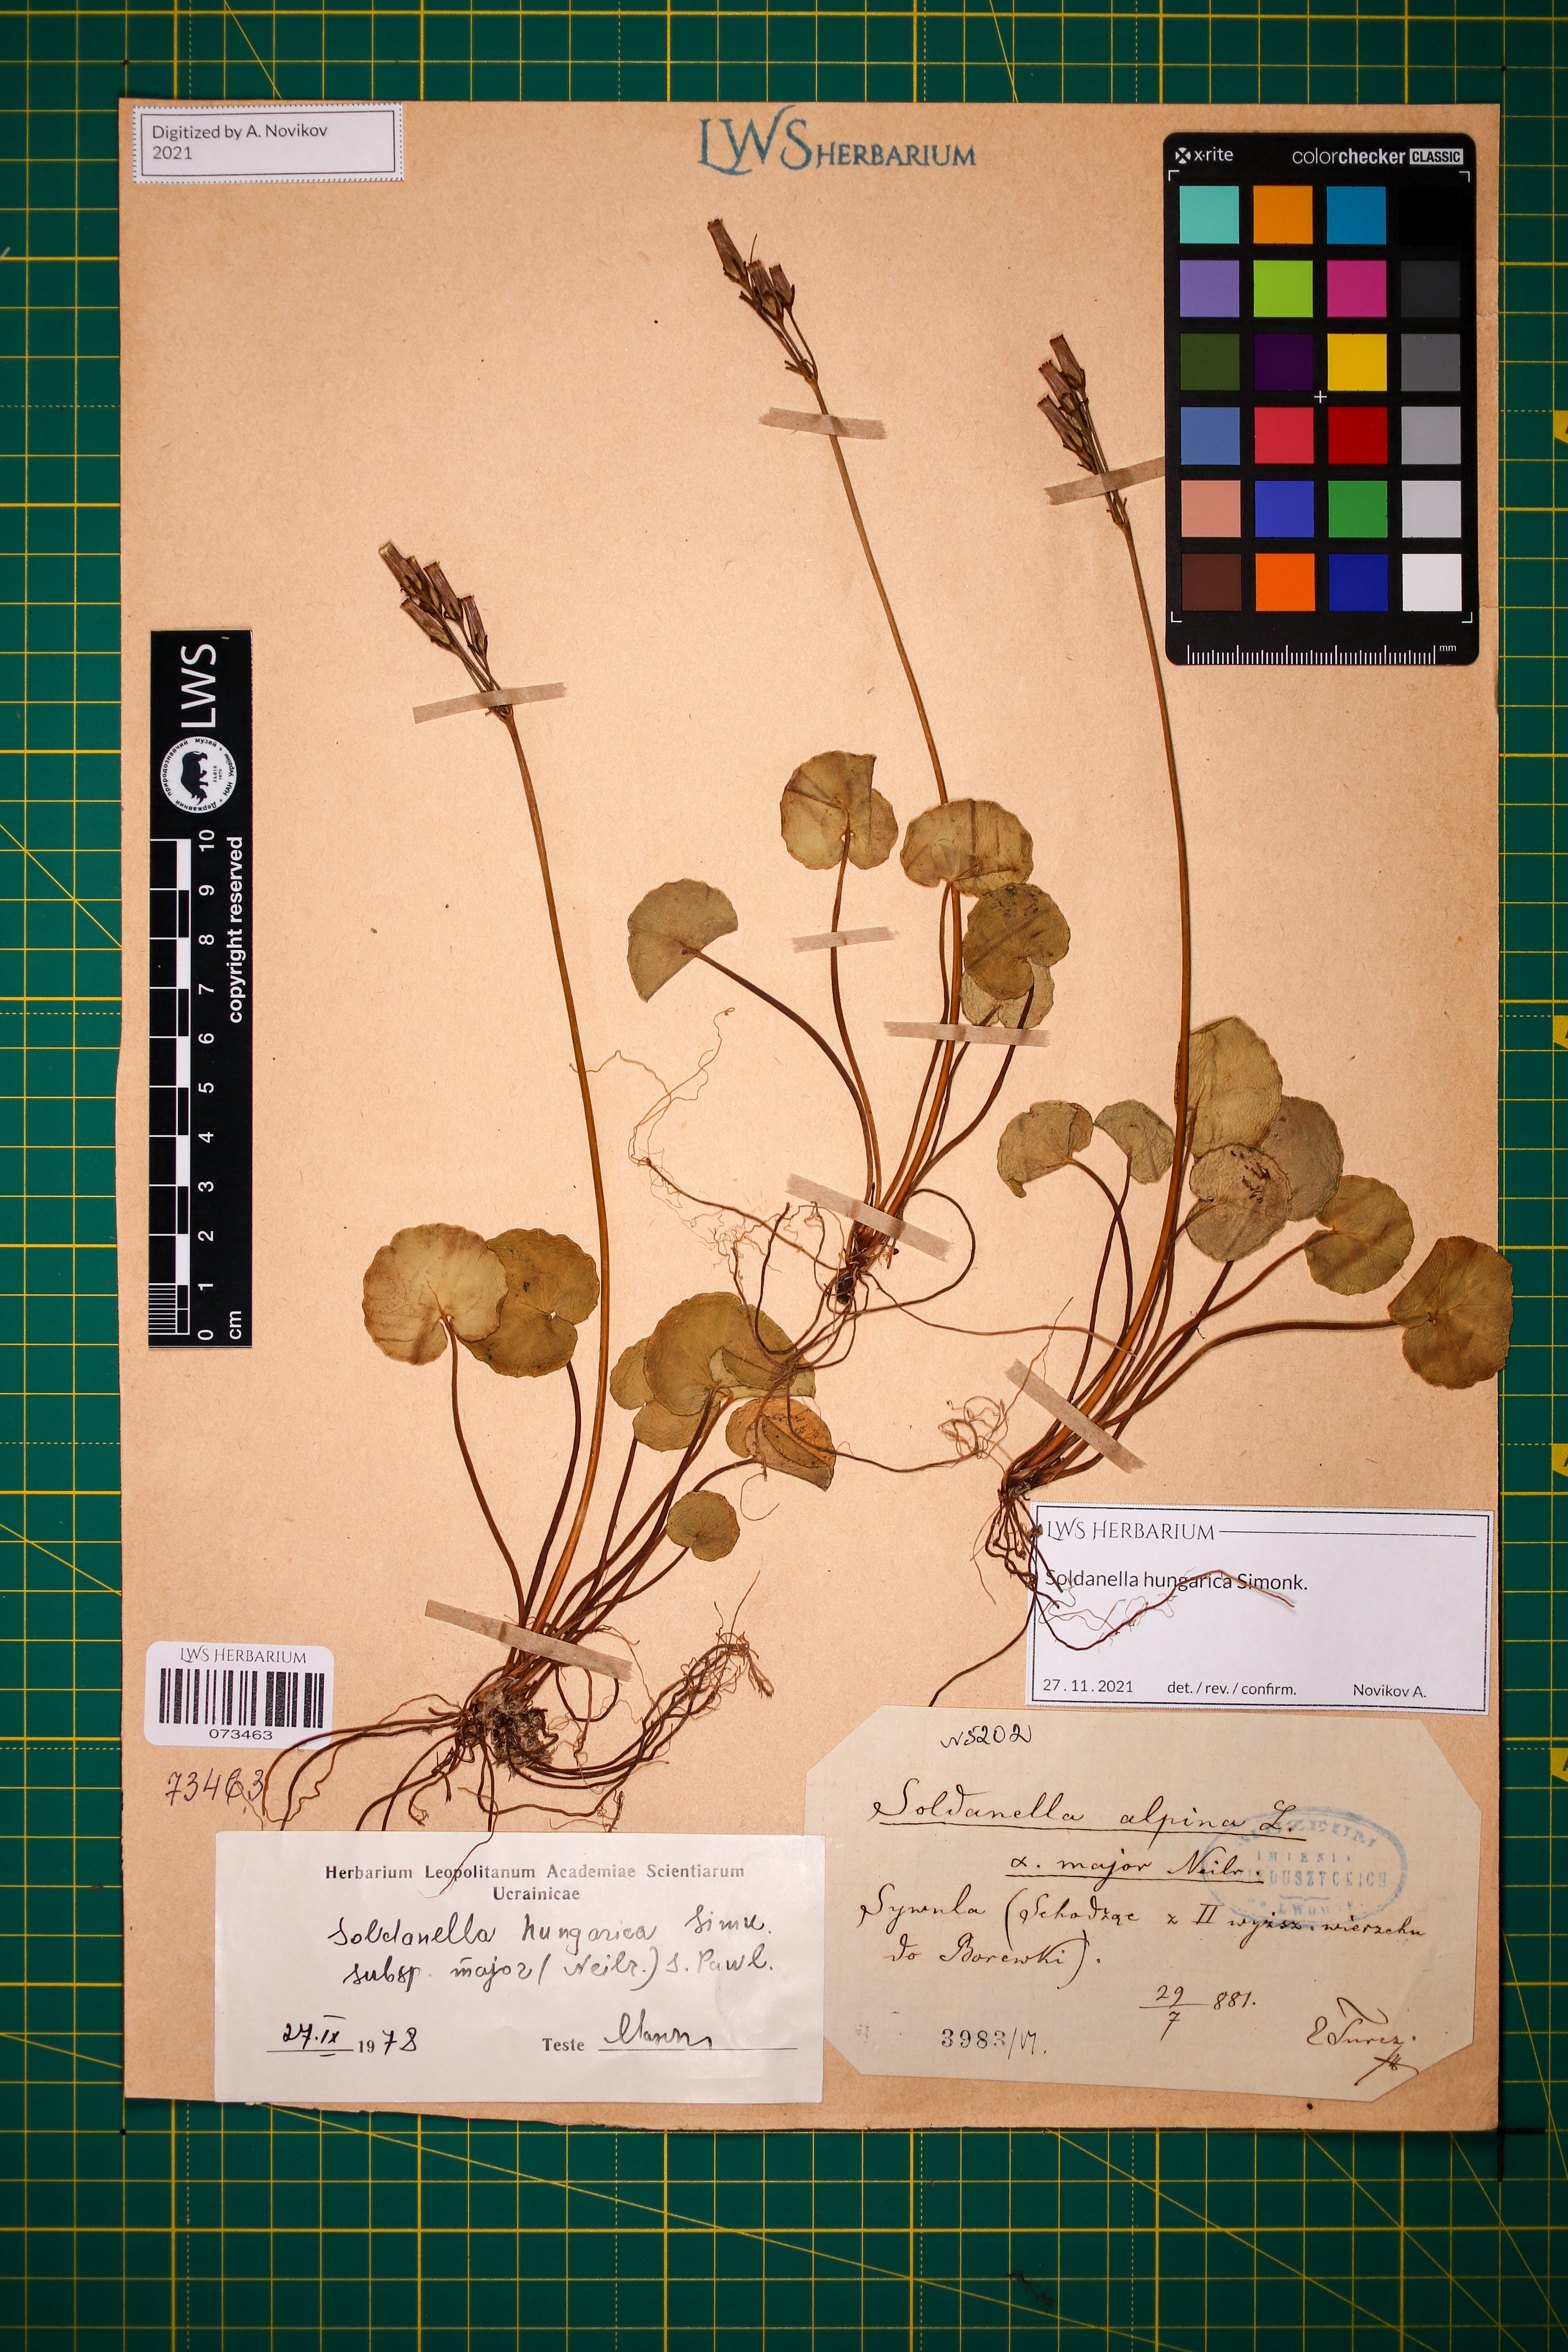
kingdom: Plantae
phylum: Tracheophyta
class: Magnoliopsida
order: Ericales
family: Primulaceae
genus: Soldanella
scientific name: Soldanella hungarica
